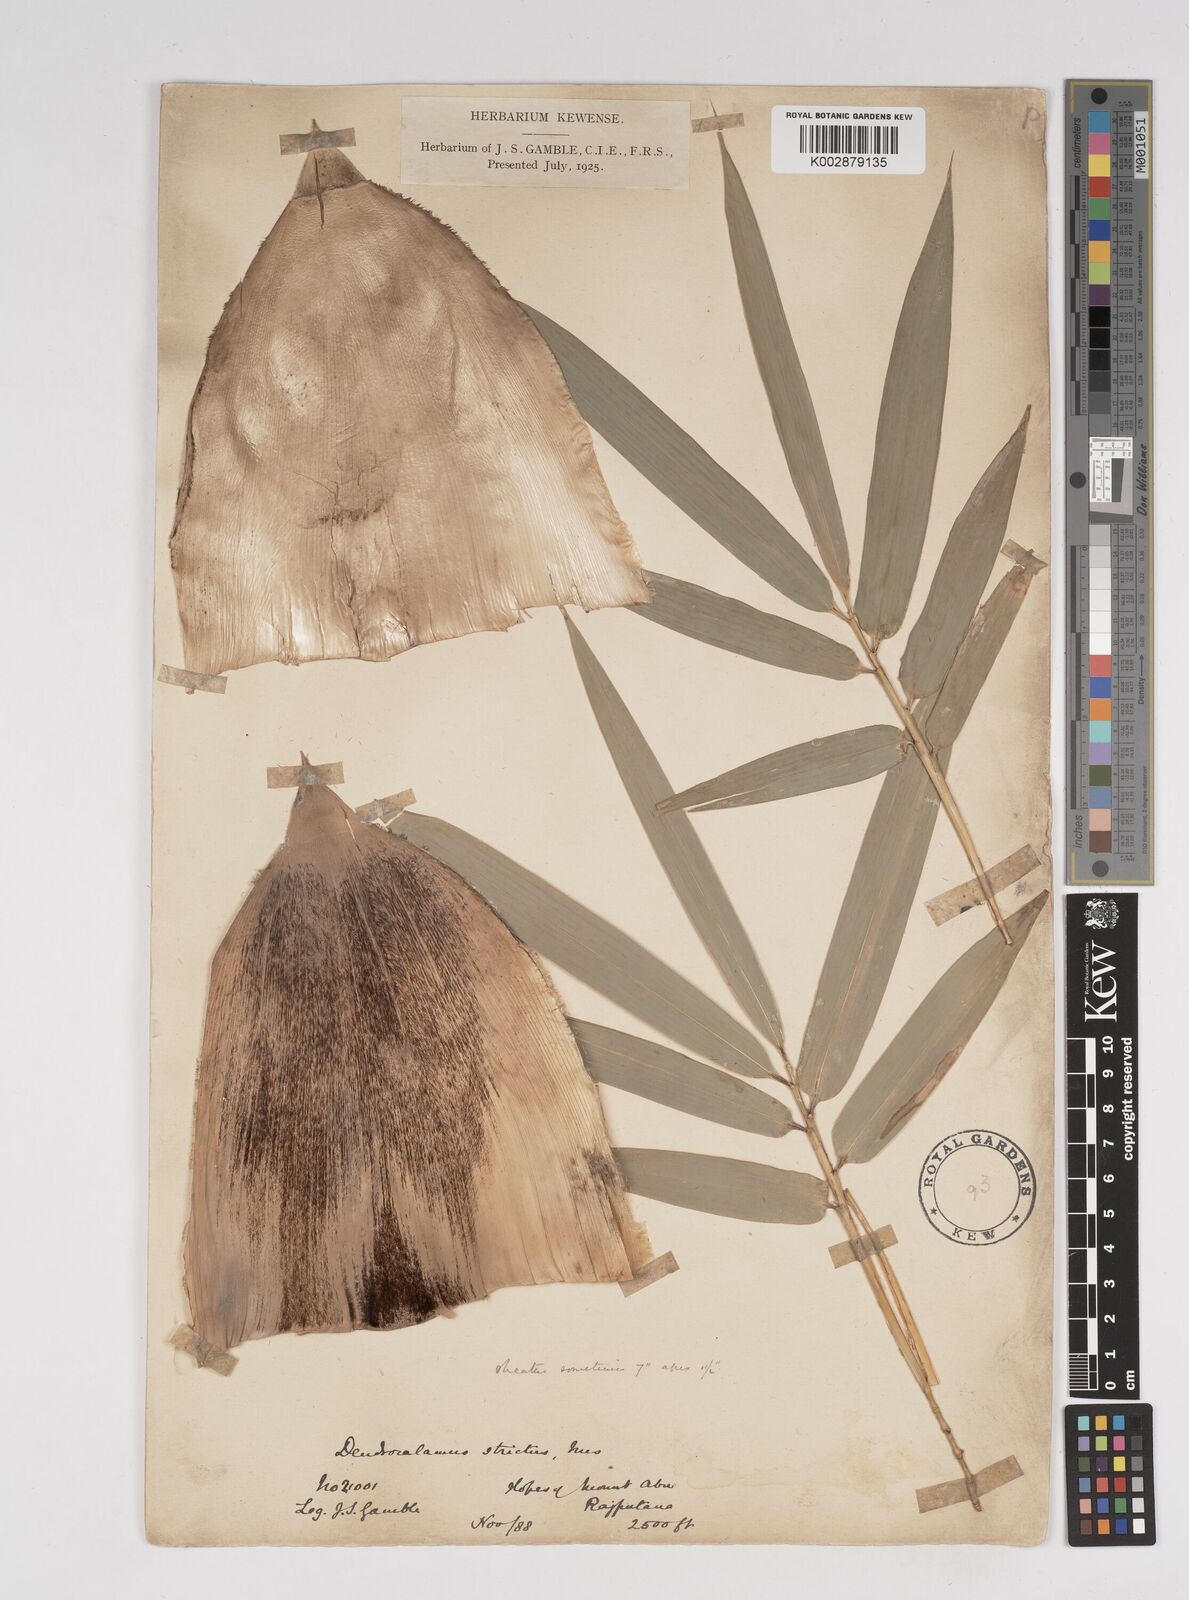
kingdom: Plantae
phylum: Tracheophyta
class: Liliopsida
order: Poales
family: Poaceae
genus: Dendrocalamus
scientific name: Dendrocalamus strictus
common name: Male bamboo
